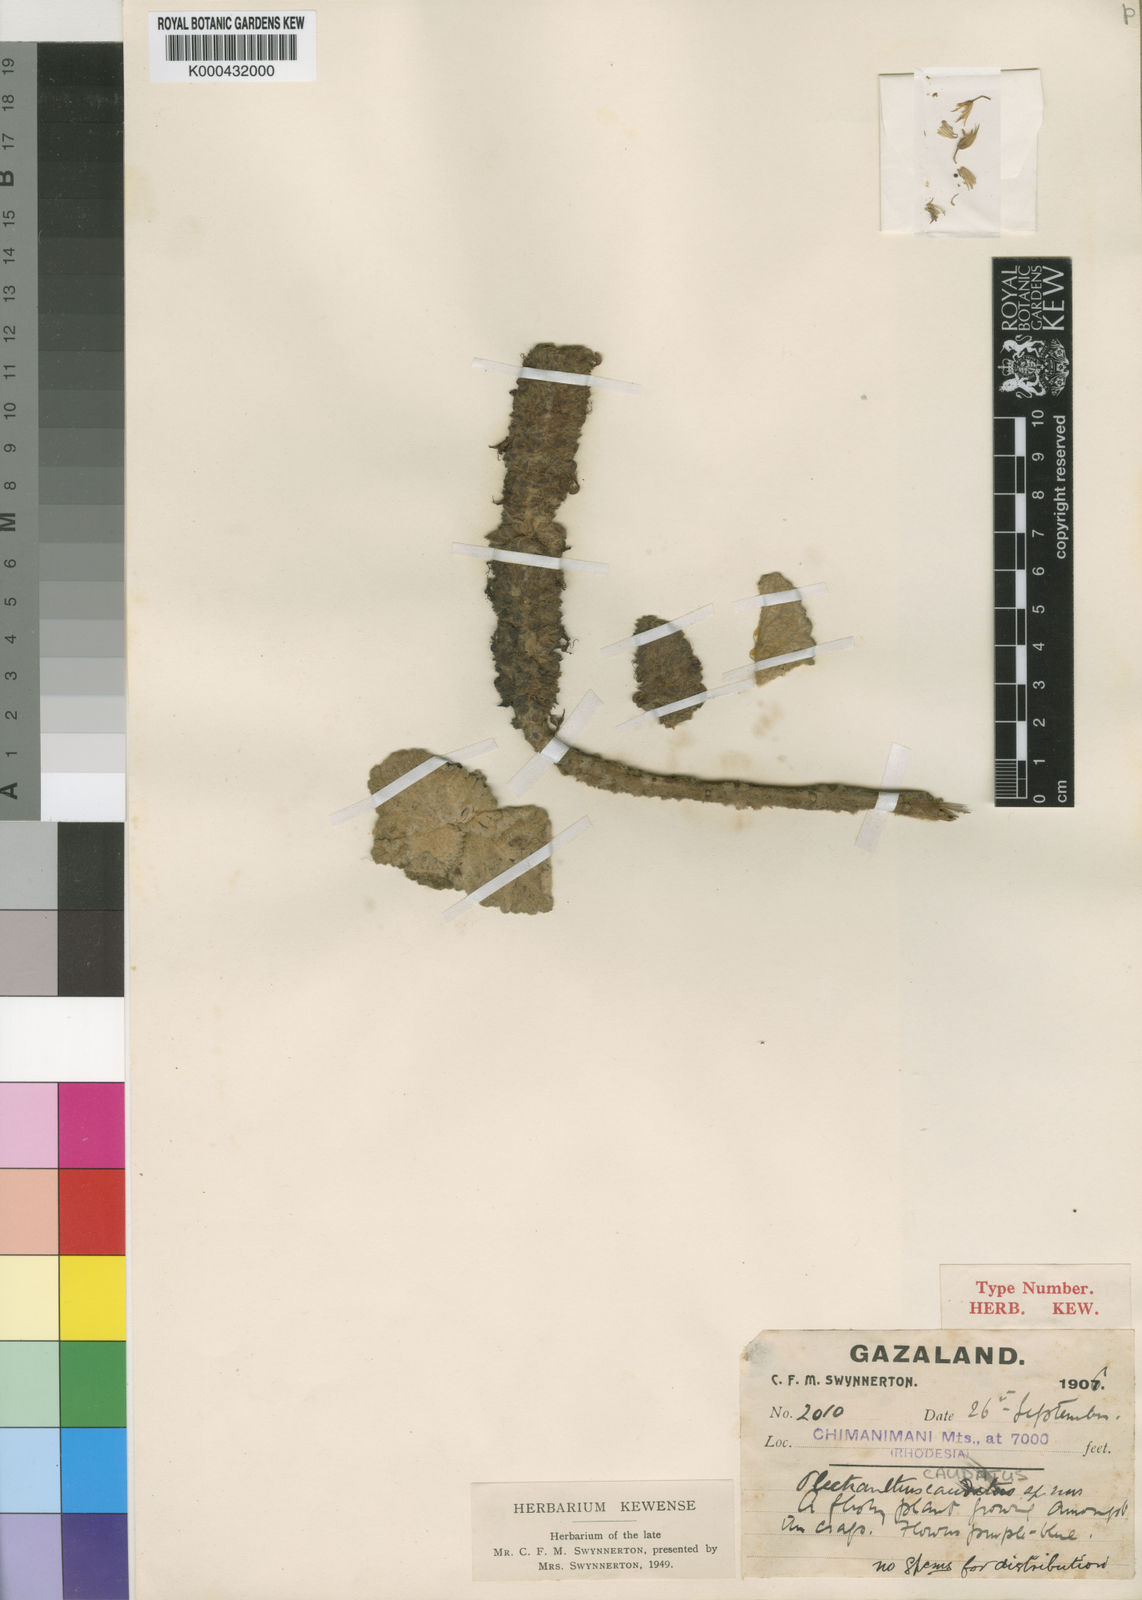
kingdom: Plantae
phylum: Tracheophyta
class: Magnoliopsida
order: Lamiales
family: Lamiaceae
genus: Coleus
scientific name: Coleus caudatus
